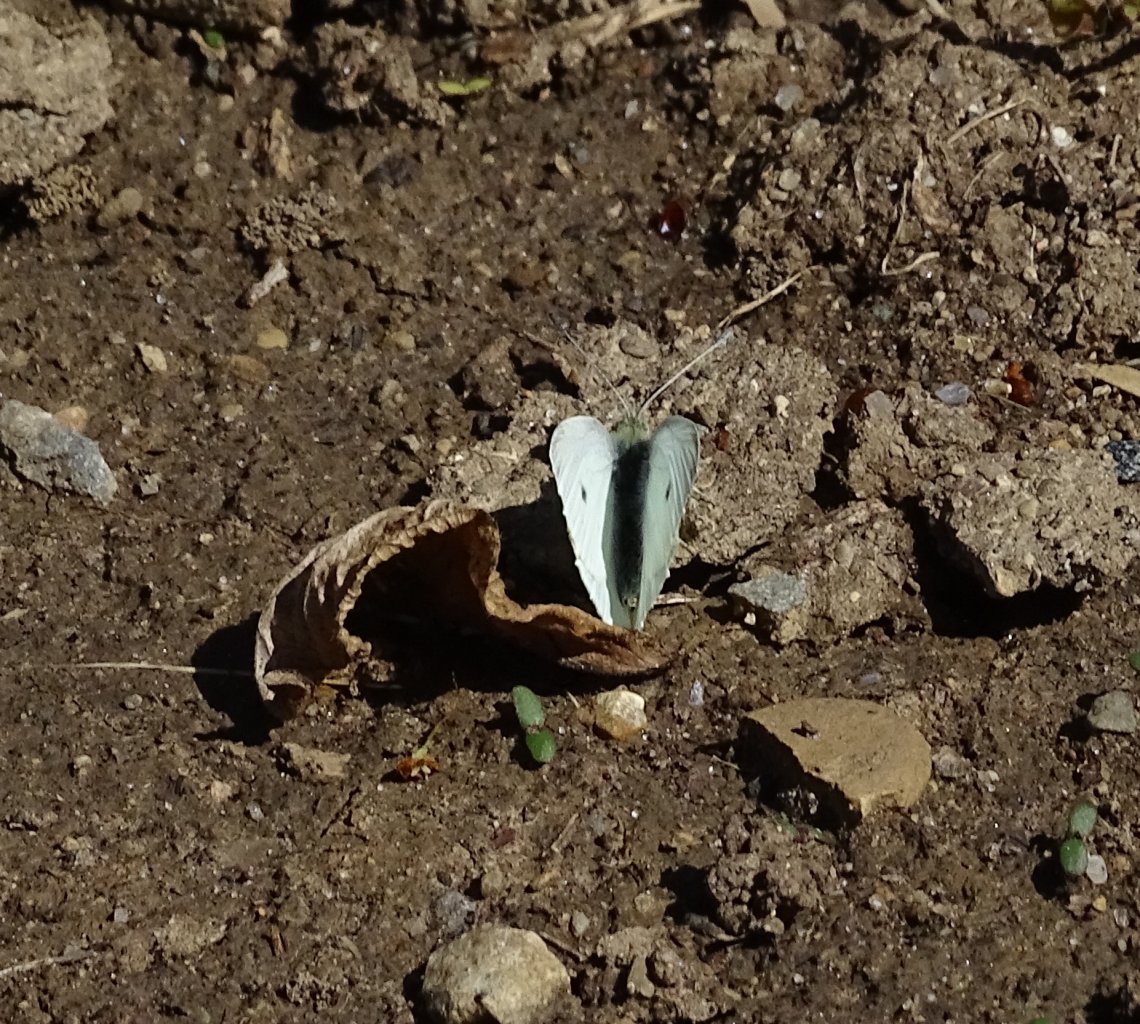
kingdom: Animalia
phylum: Arthropoda
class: Insecta
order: Lepidoptera
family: Pieridae
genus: Pieris
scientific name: Pieris rapae
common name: Cabbage White
